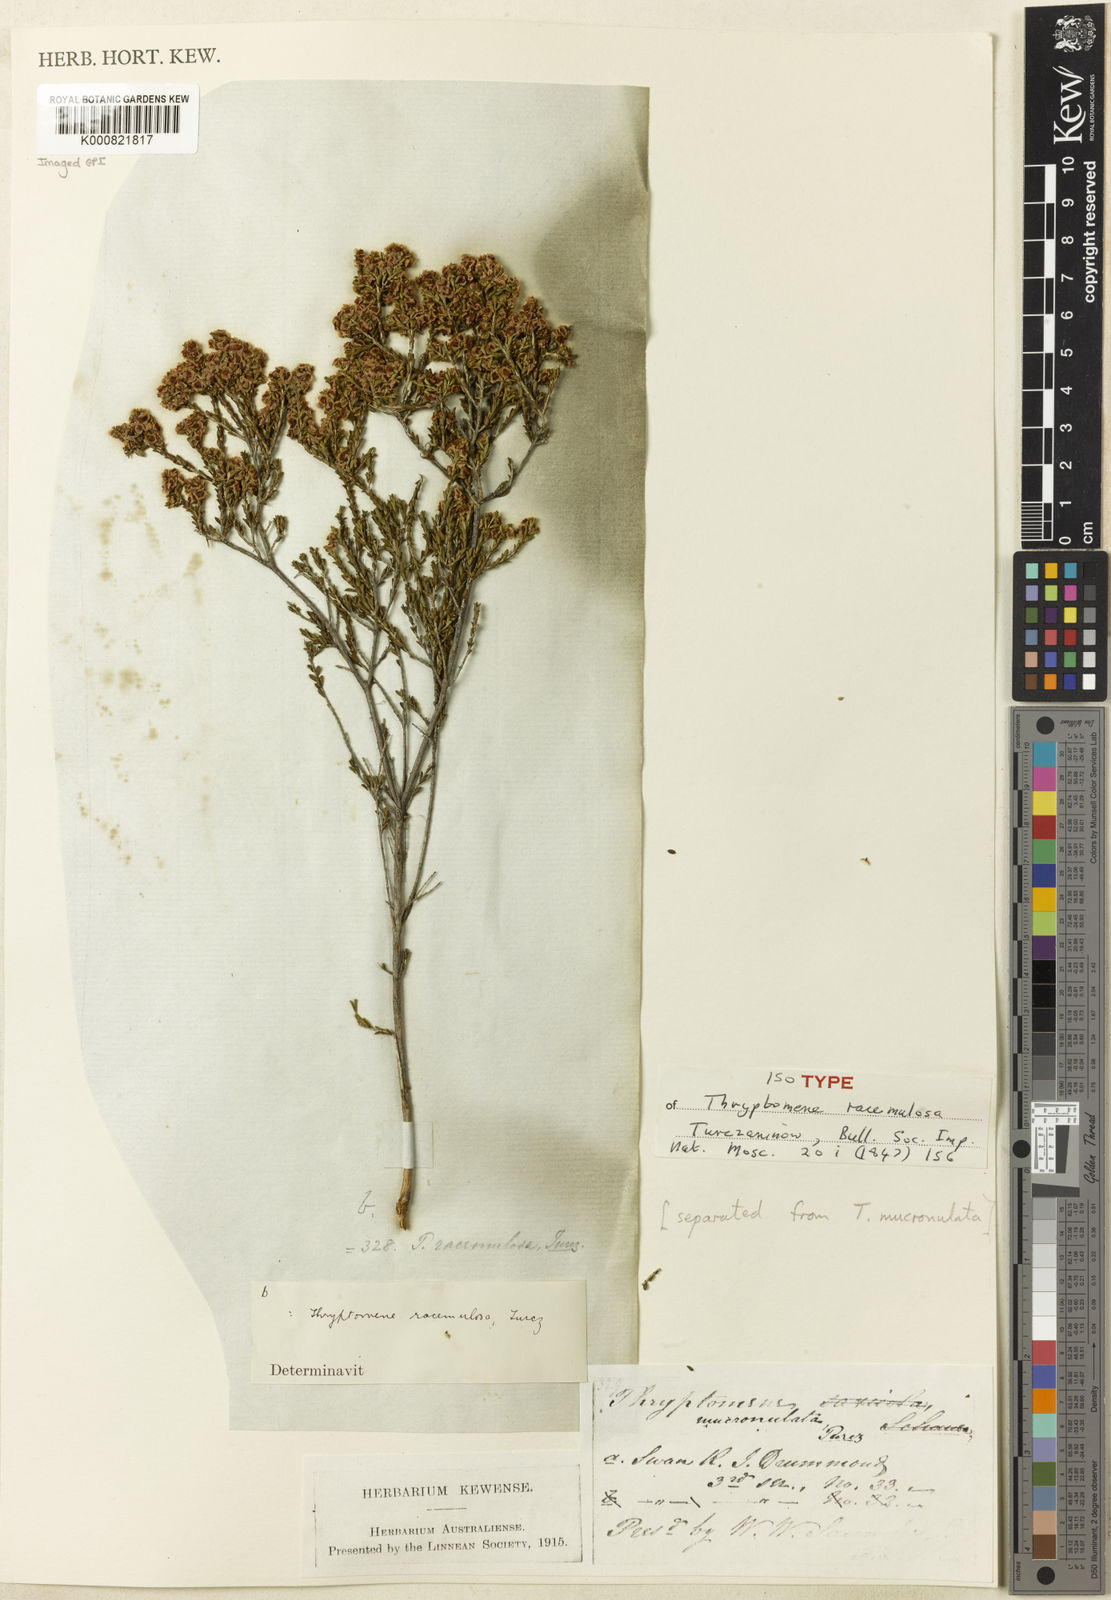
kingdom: Plantae
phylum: Tracheophyta
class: Magnoliopsida
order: Myrtales
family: Myrtaceae
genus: Thryptomene
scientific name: Thryptomene racemulosa
